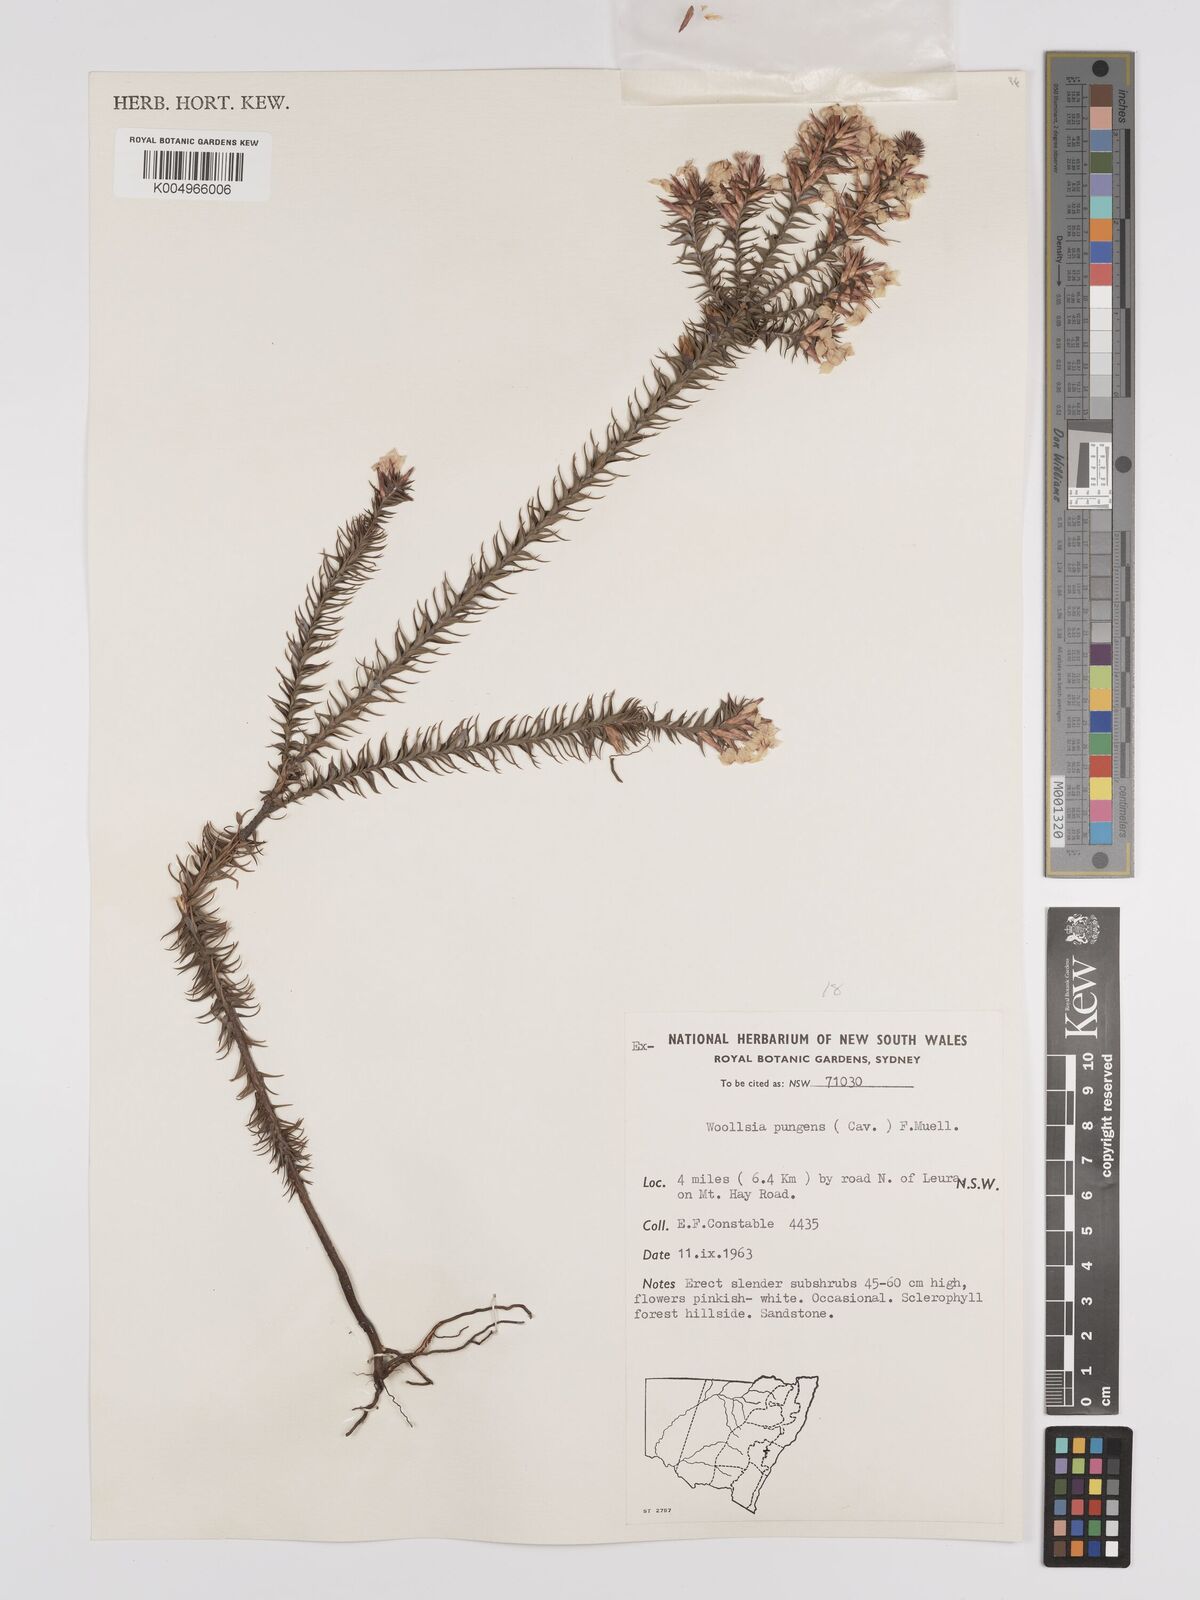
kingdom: Plantae
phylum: Tracheophyta
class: Magnoliopsida
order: Ericales
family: Ericaceae
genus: Woollsia
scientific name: Woollsia pungens
